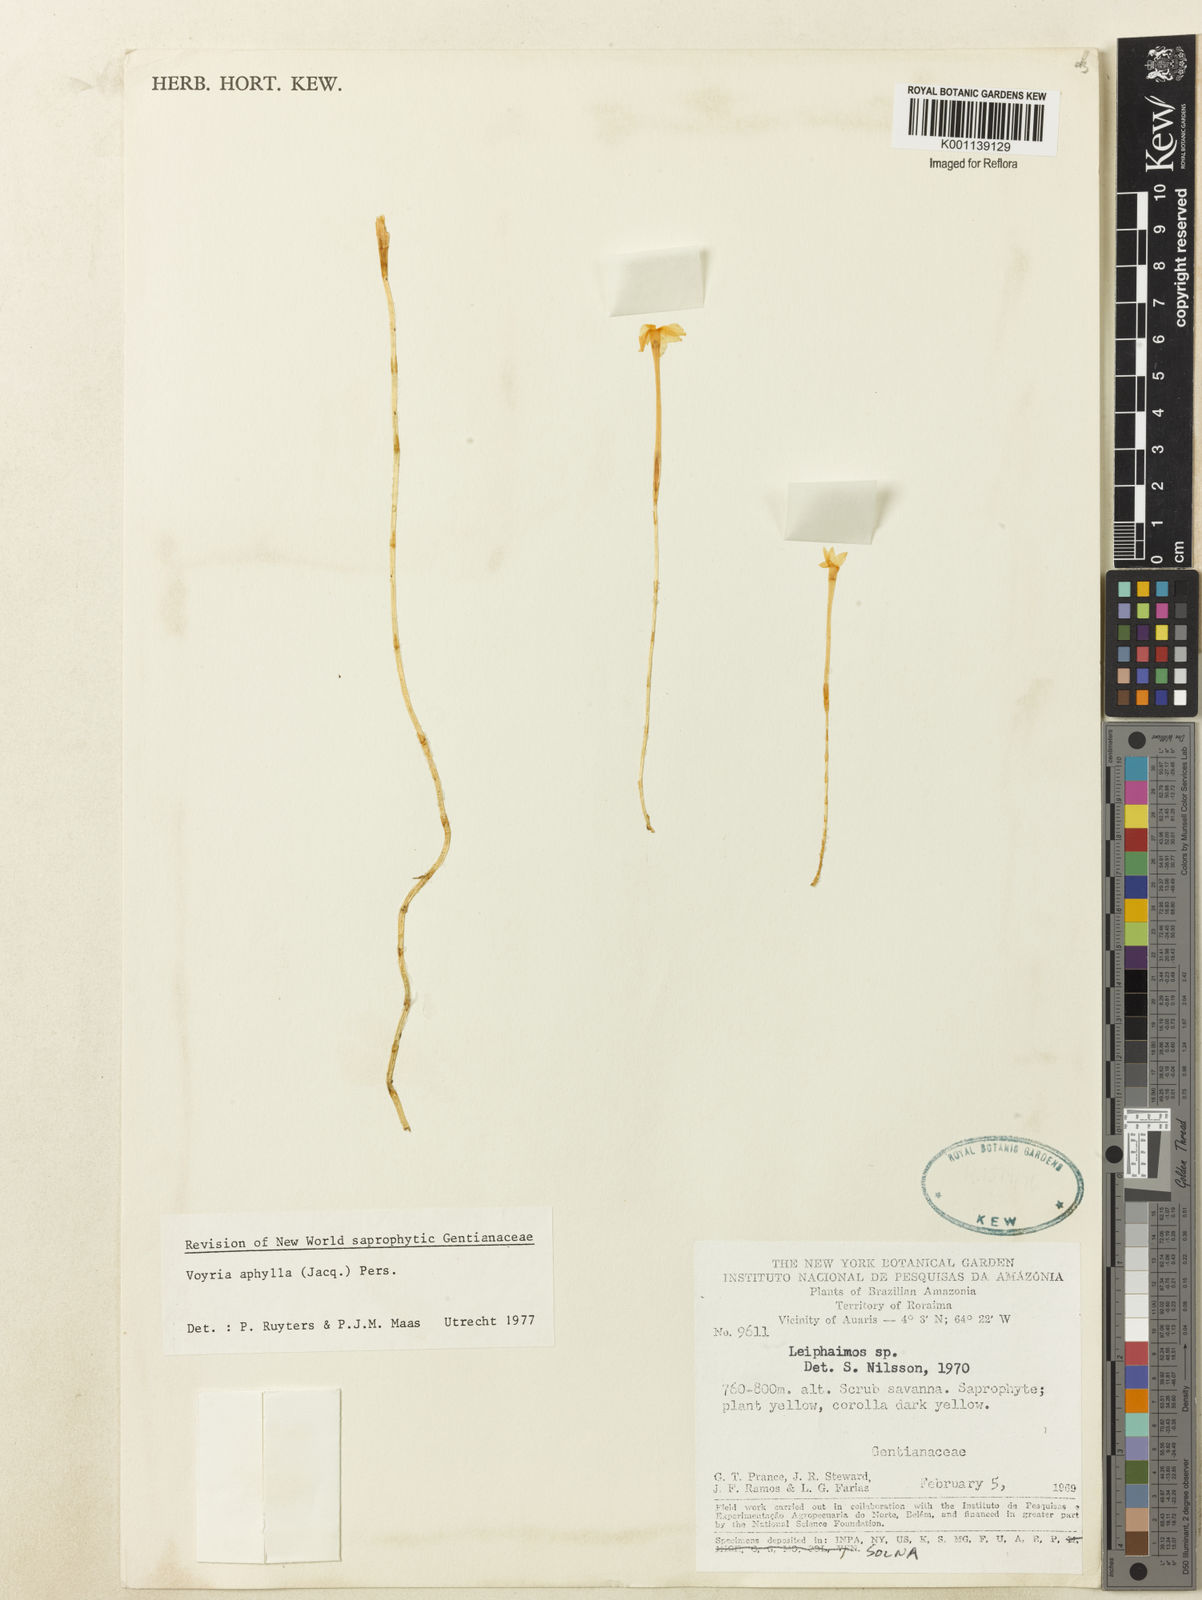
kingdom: Plantae
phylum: Tracheophyta
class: Magnoliopsida
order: Gentianales
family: Gentianaceae
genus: Voyria
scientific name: Voyria aphylla
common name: Leafless ghost plant
